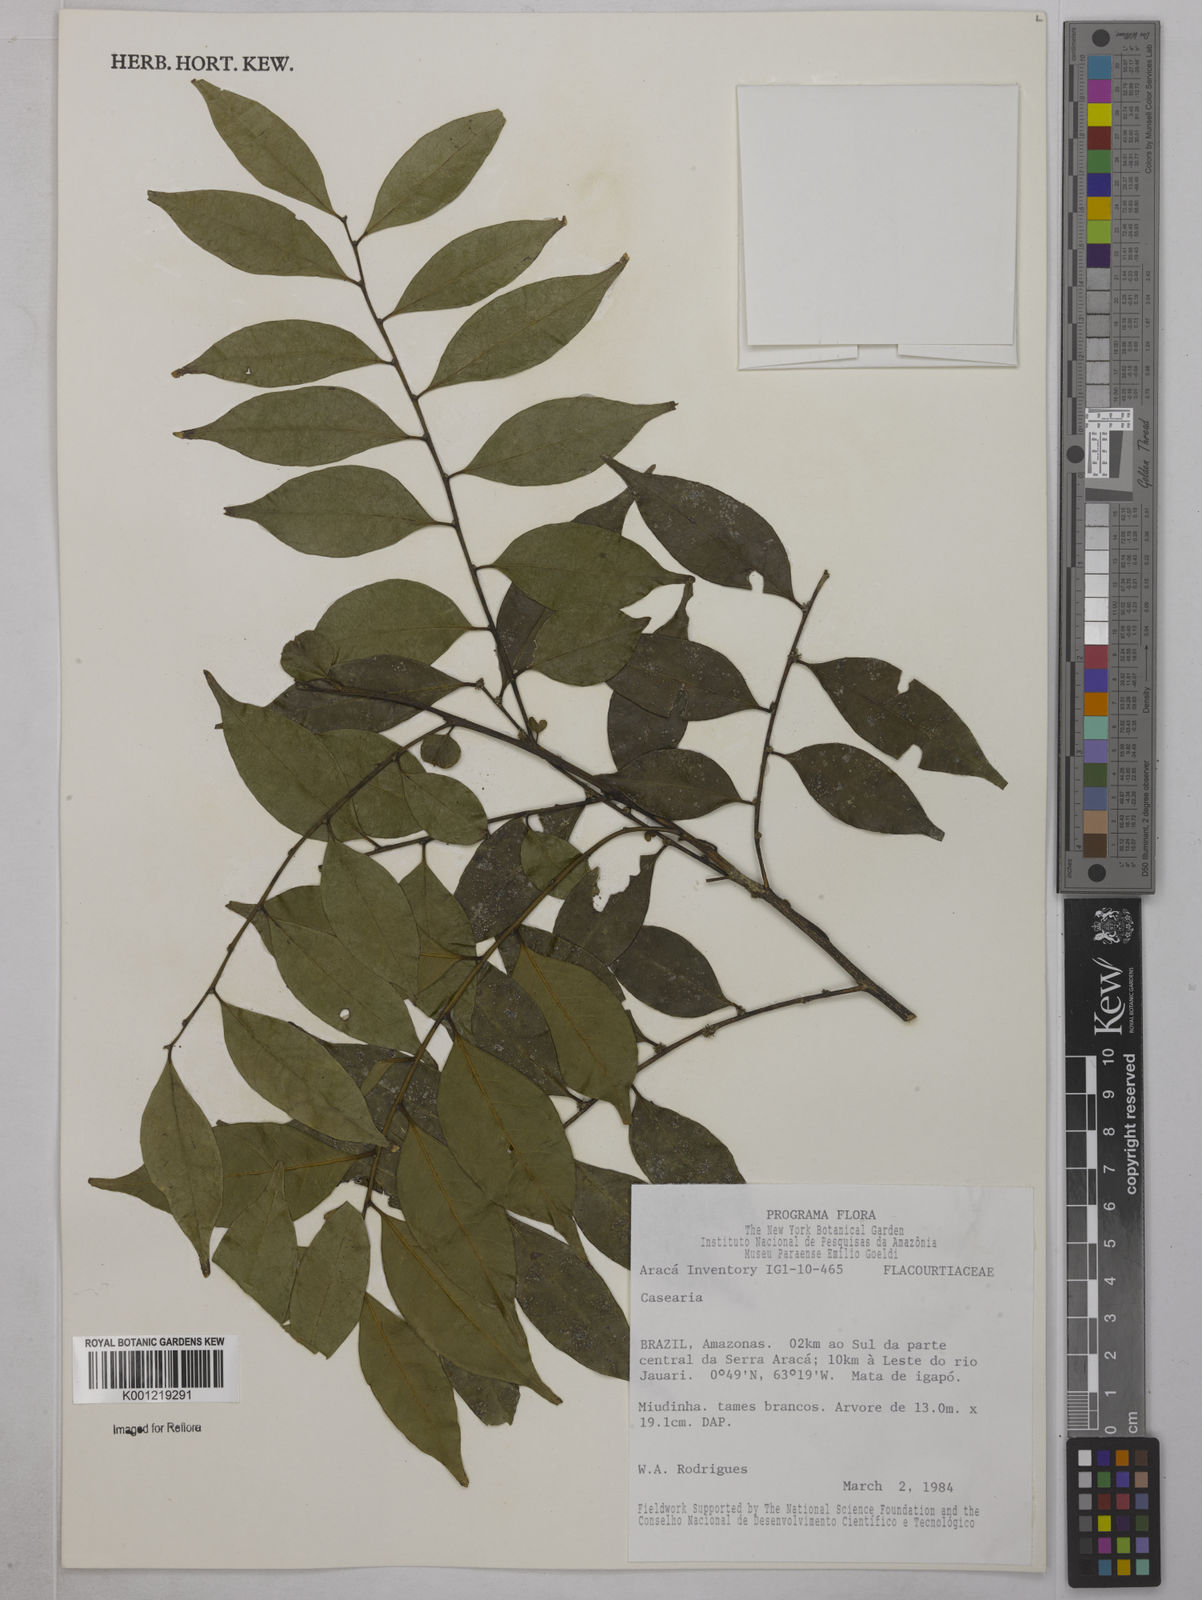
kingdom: Plantae
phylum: Tracheophyta
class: Magnoliopsida
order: Malpighiales
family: Salicaceae
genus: Casearia
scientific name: Casearia
